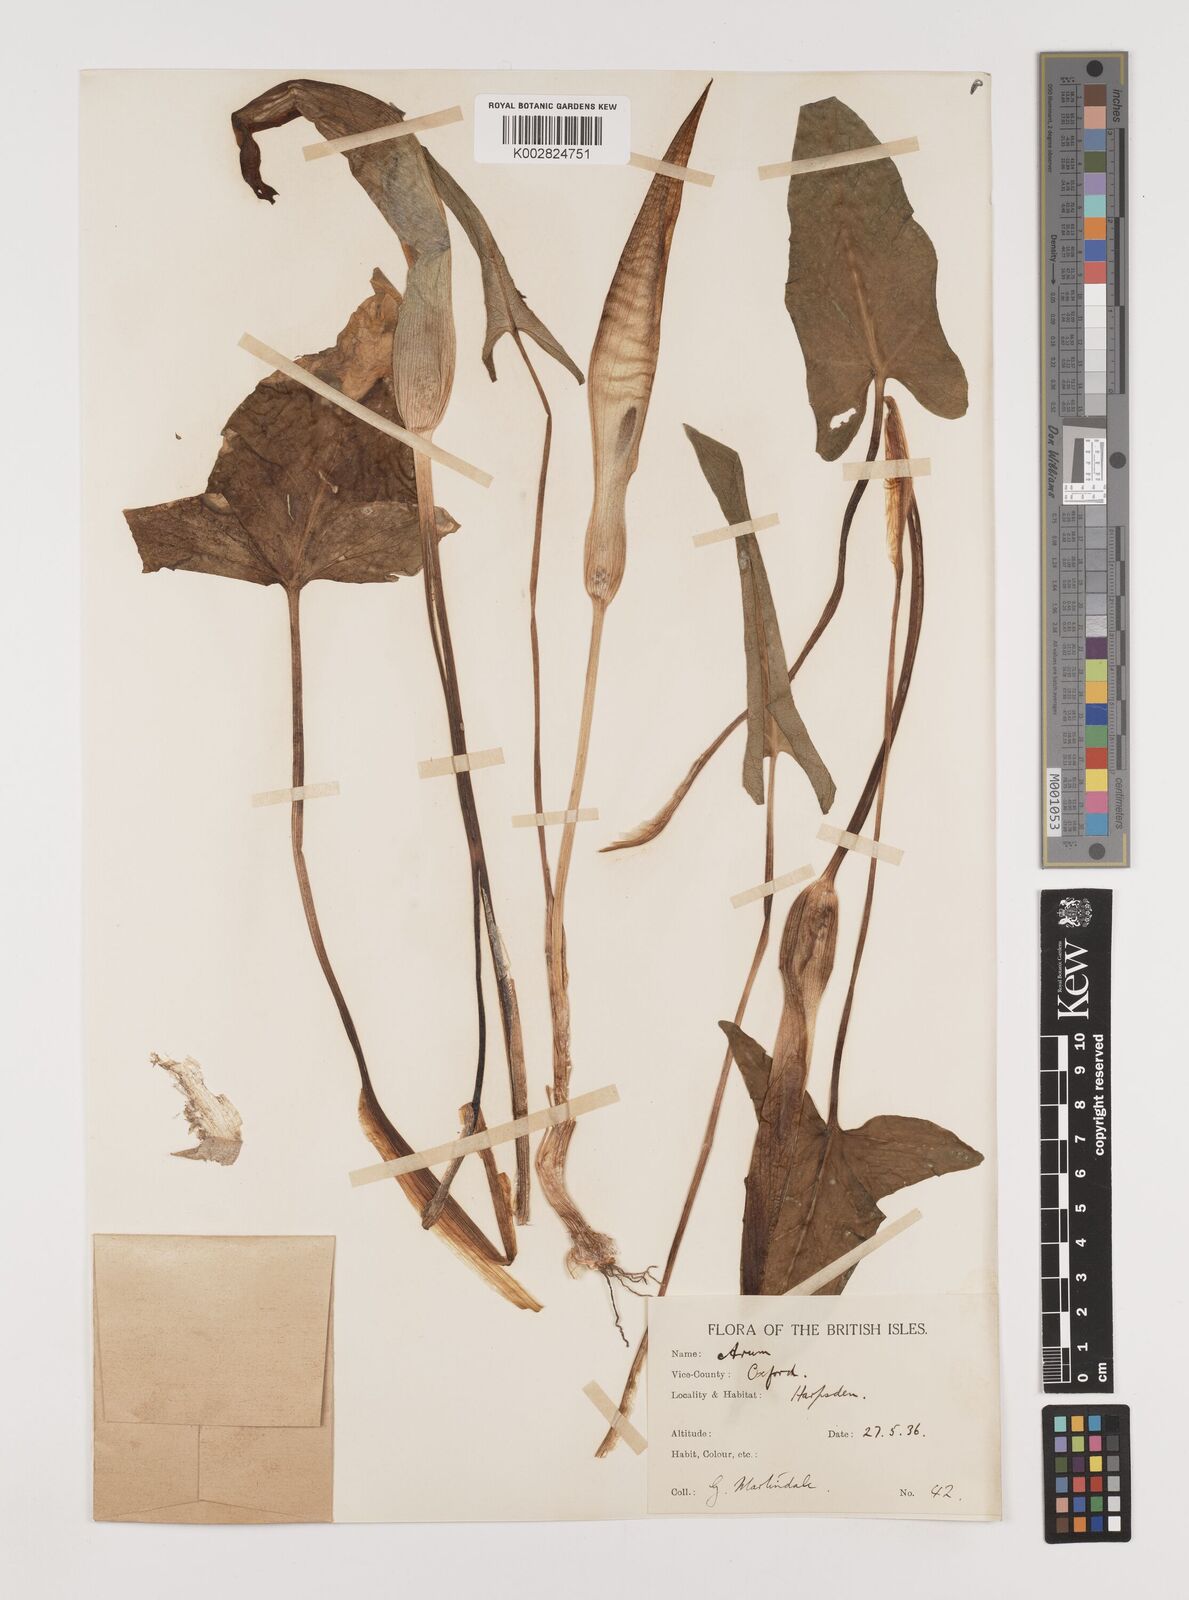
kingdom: Plantae
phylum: Tracheophyta
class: Liliopsida
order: Alismatales
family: Araceae
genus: Arum
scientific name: Arum maculatum
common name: Lords-and-ladies
